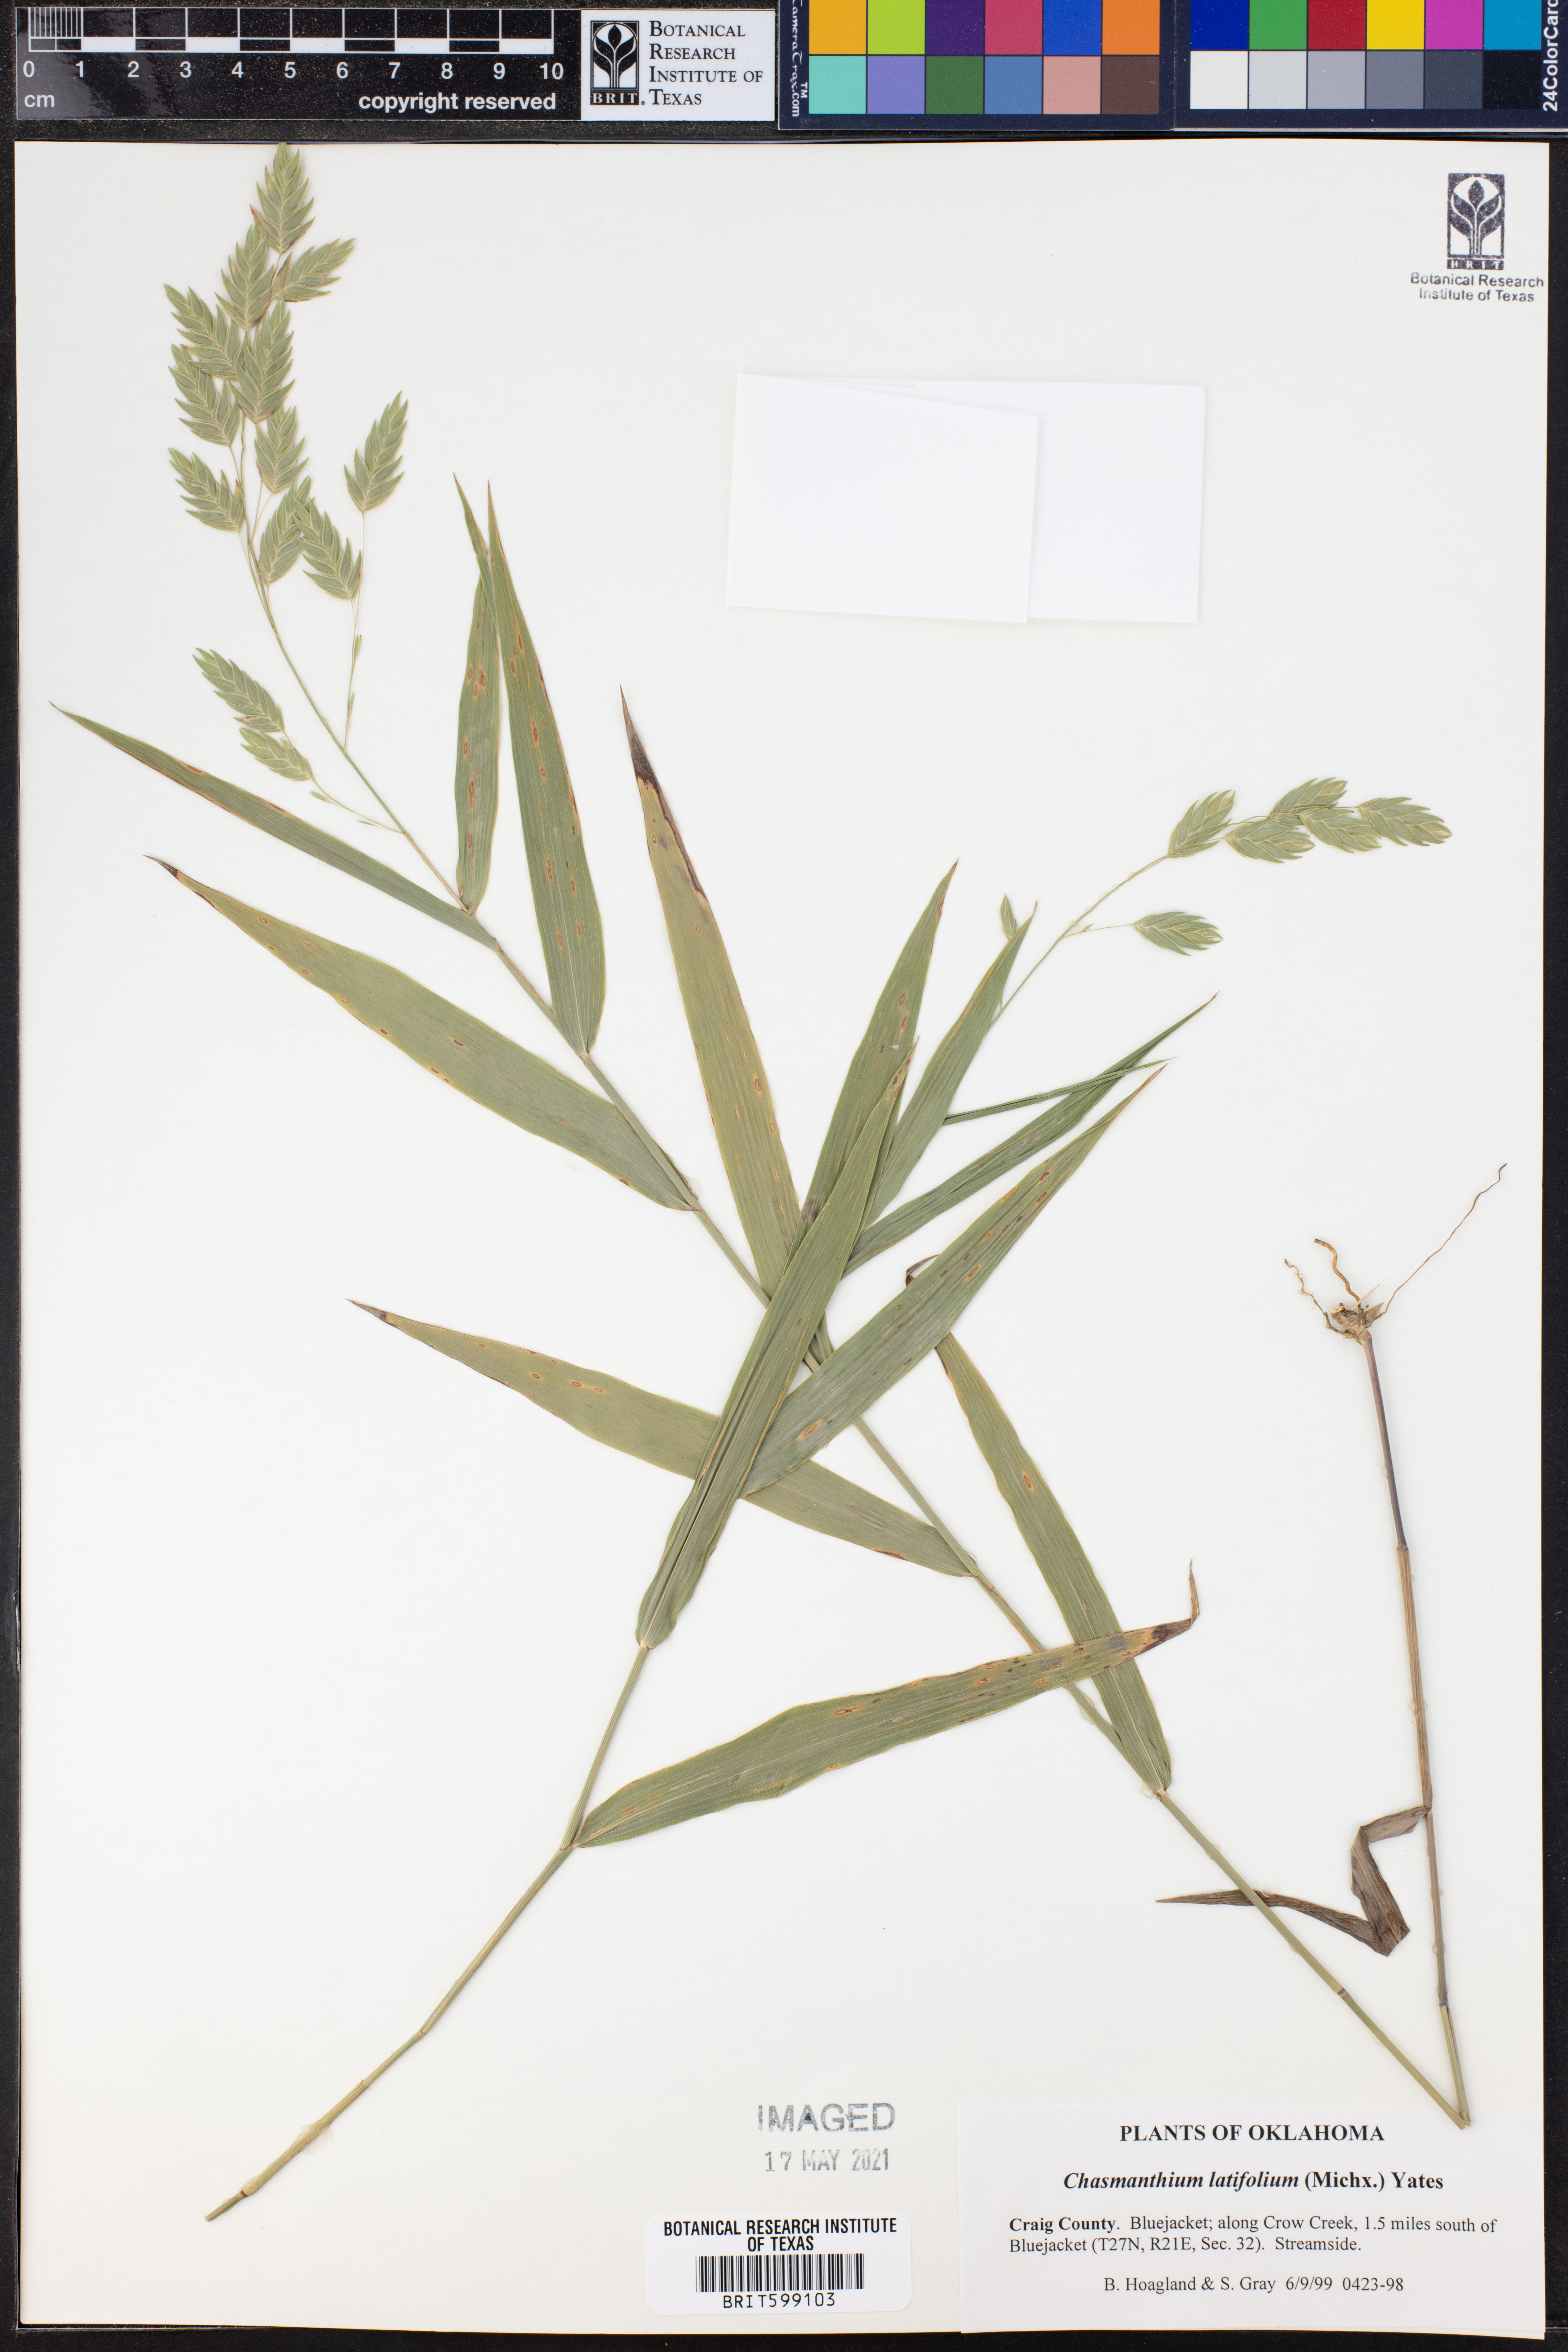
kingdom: Plantae
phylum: Tracheophyta
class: Liliopsida
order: Poales
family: Poaceae
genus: Chasmanthium
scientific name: Chasmanthium latifolium
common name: Broad-leaved chasmanthium
